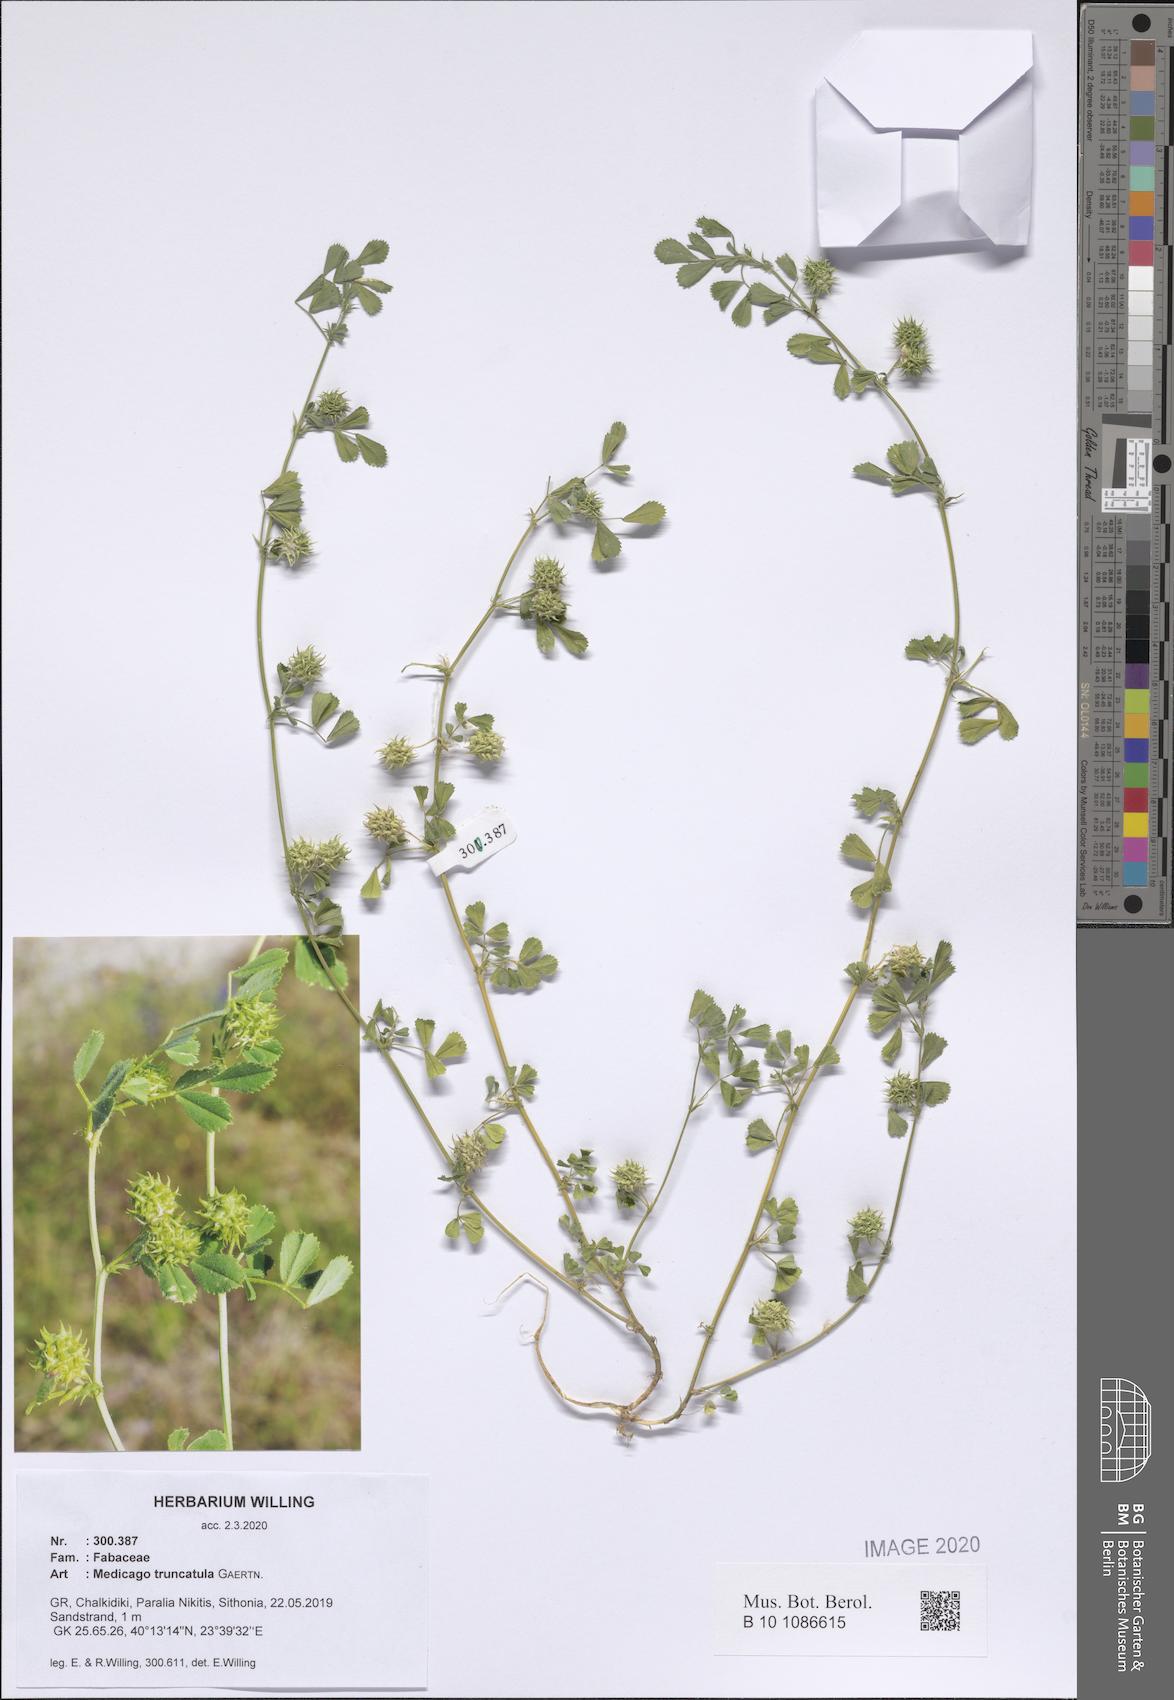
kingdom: Plantae
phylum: Tracheophyta
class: Magnoliopsida
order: Fabales
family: Fabaceae
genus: Medicago
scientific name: Medicago truncatula
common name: Strong-spined medick
